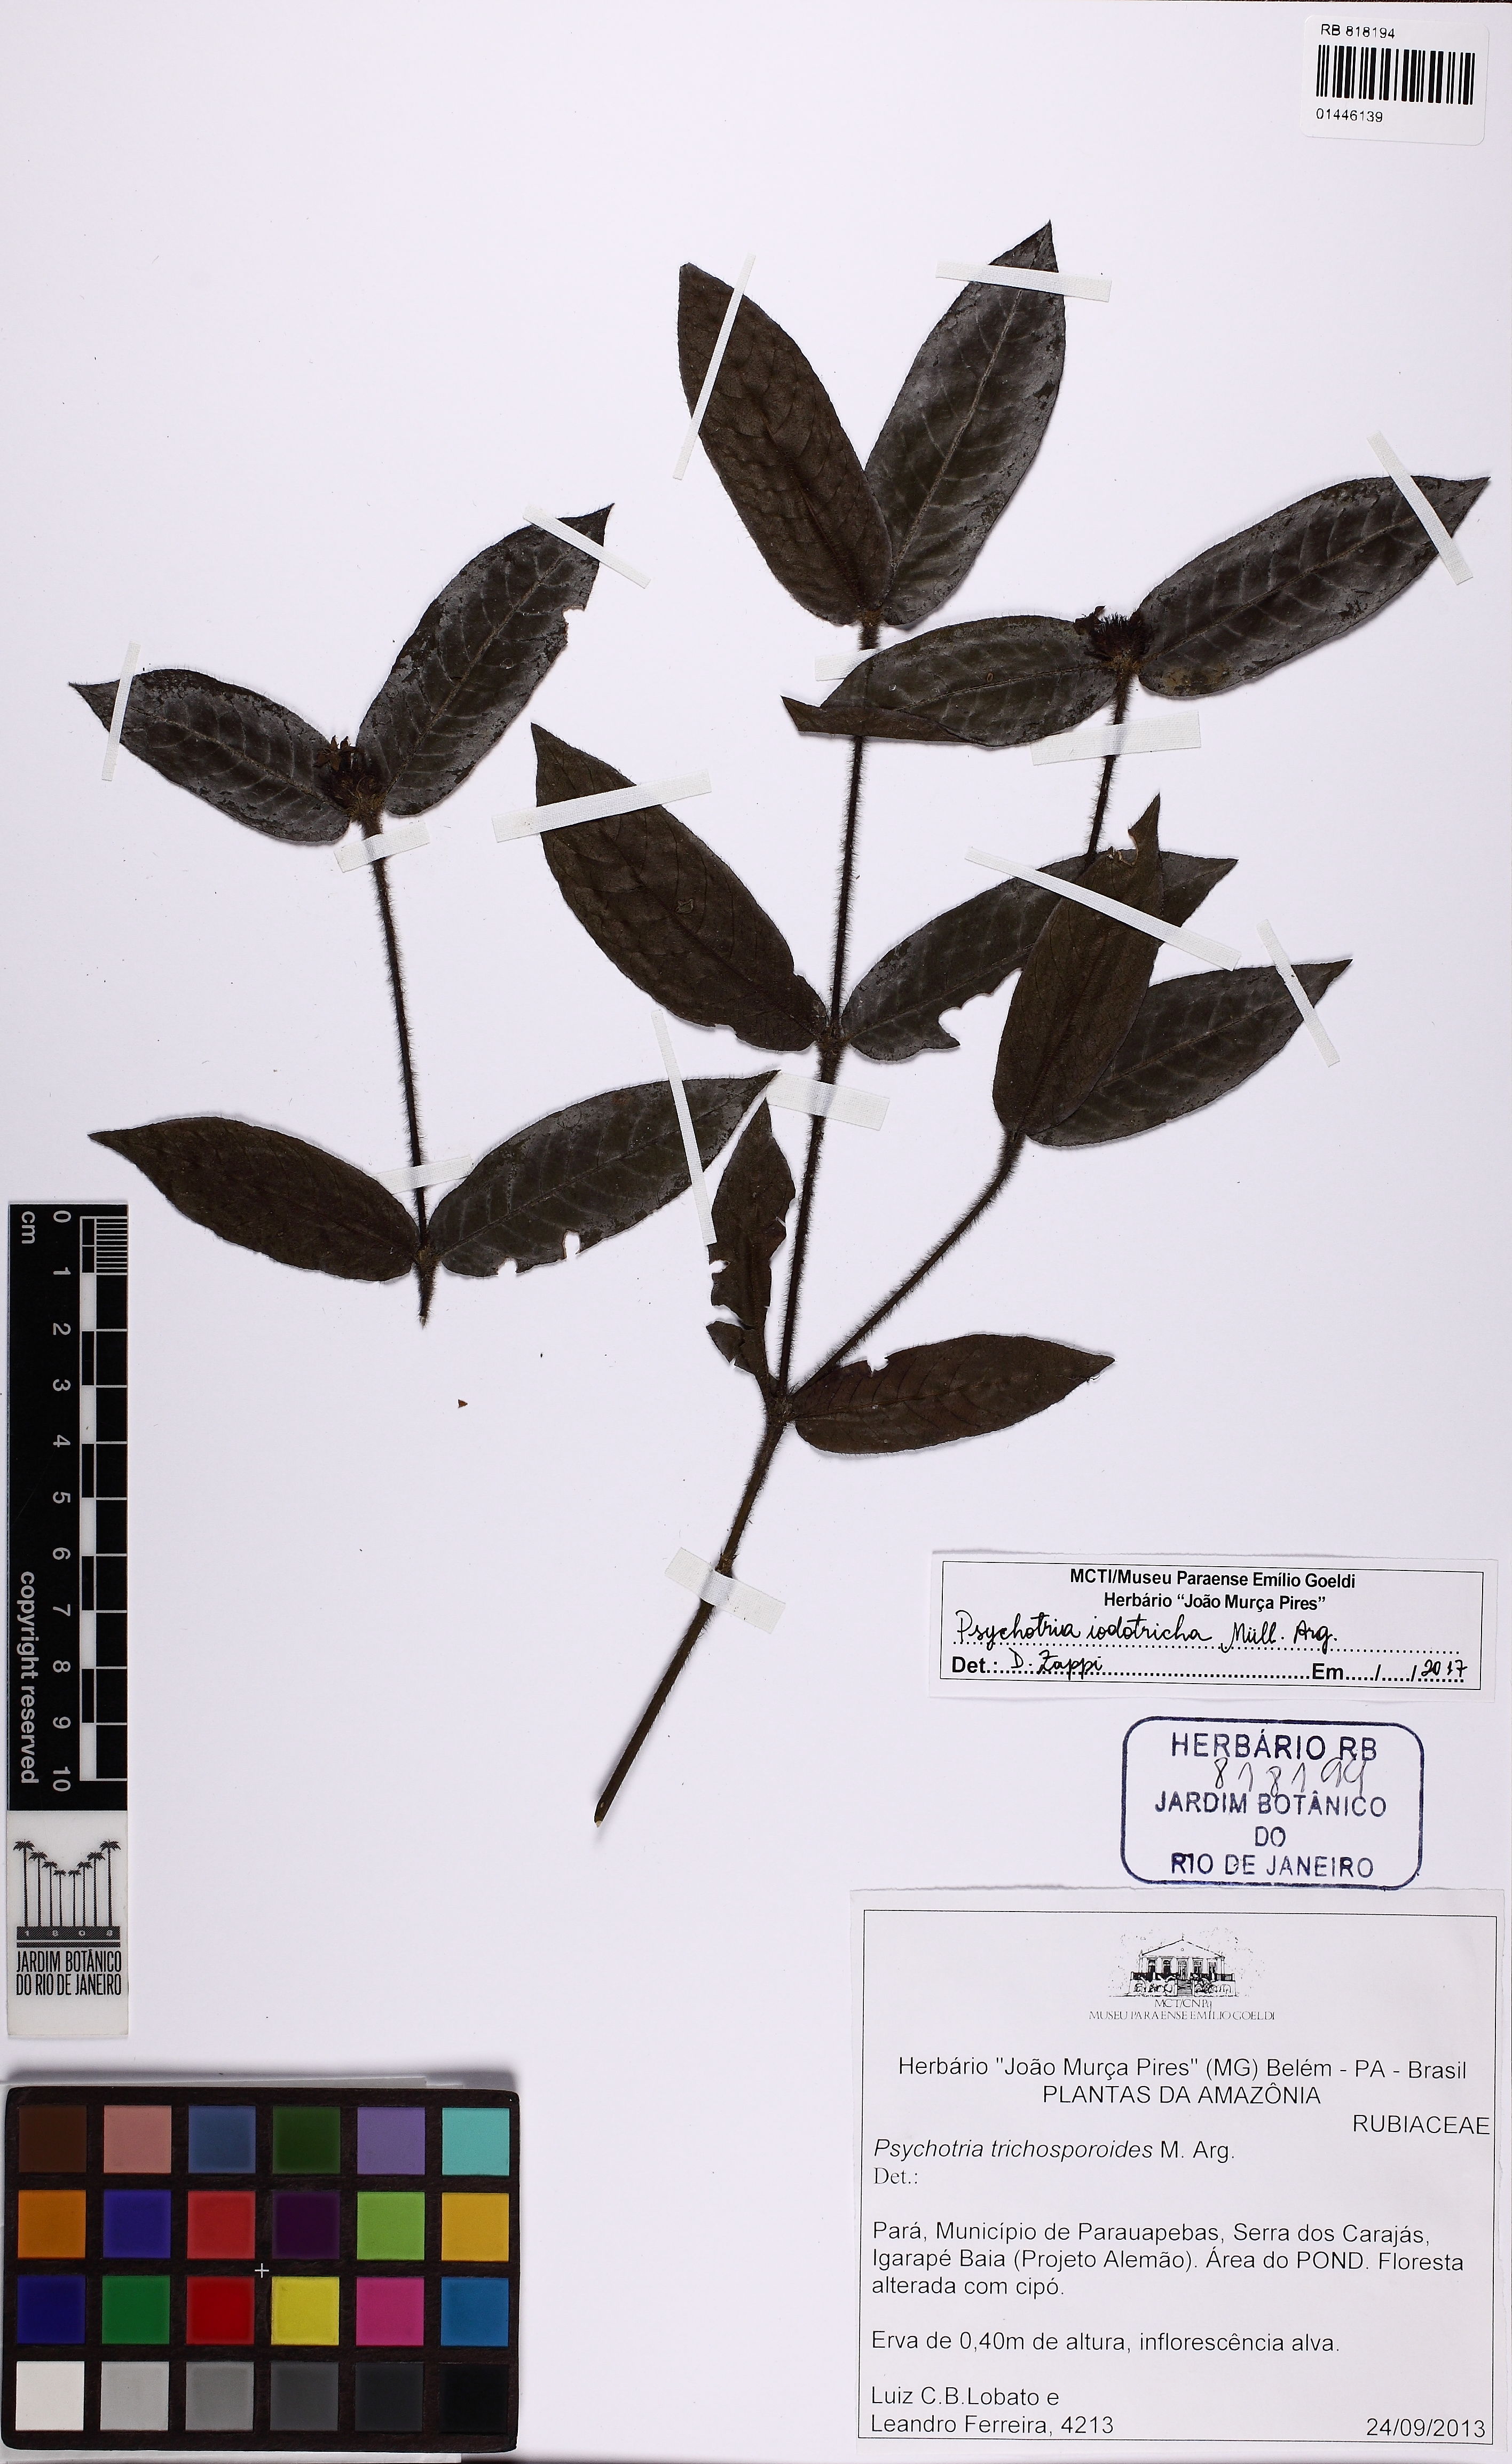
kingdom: Plantae
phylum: Tracheophyta
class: Magnoliopsida
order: Gentianales
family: Rubiaceae
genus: Palicourea
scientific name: Palicourea iodotricha
